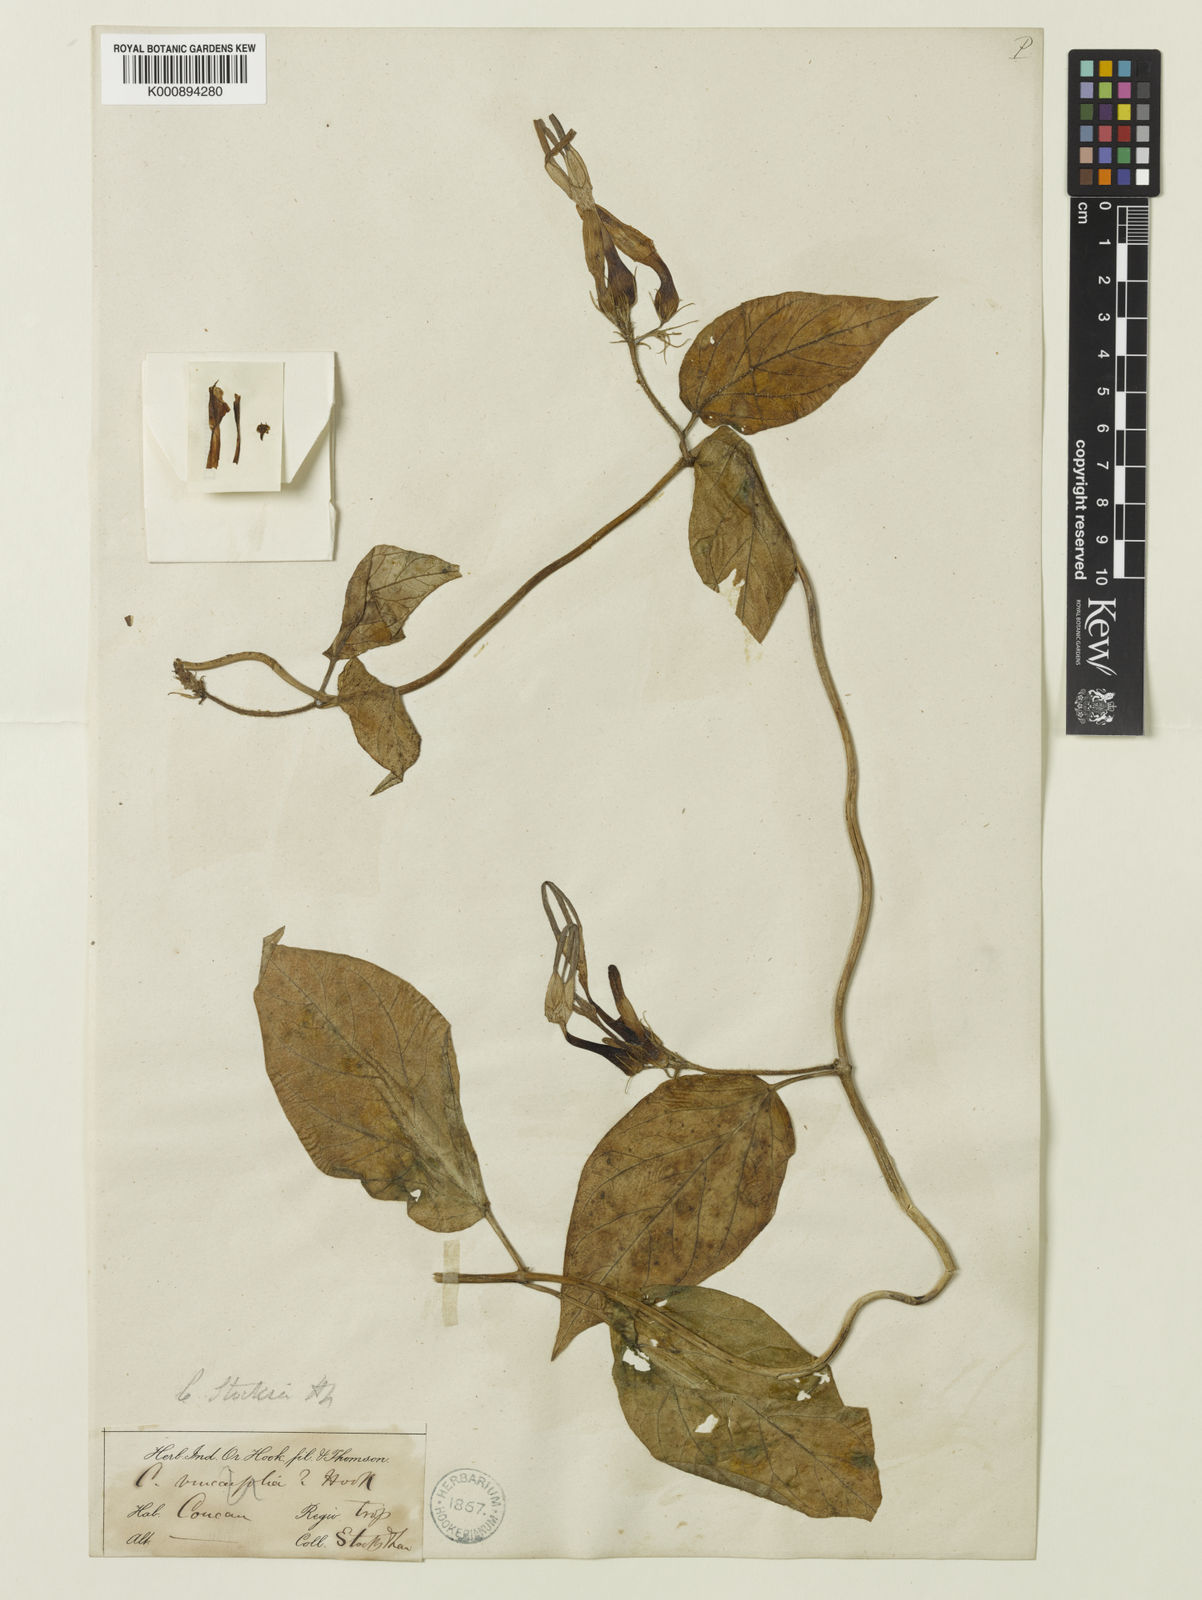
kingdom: Plantae
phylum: Tracheophyta
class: Magnoliopsida
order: Gentianales
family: Apocynaceae
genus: Ceropegia
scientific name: Ceropegia vincifolia
